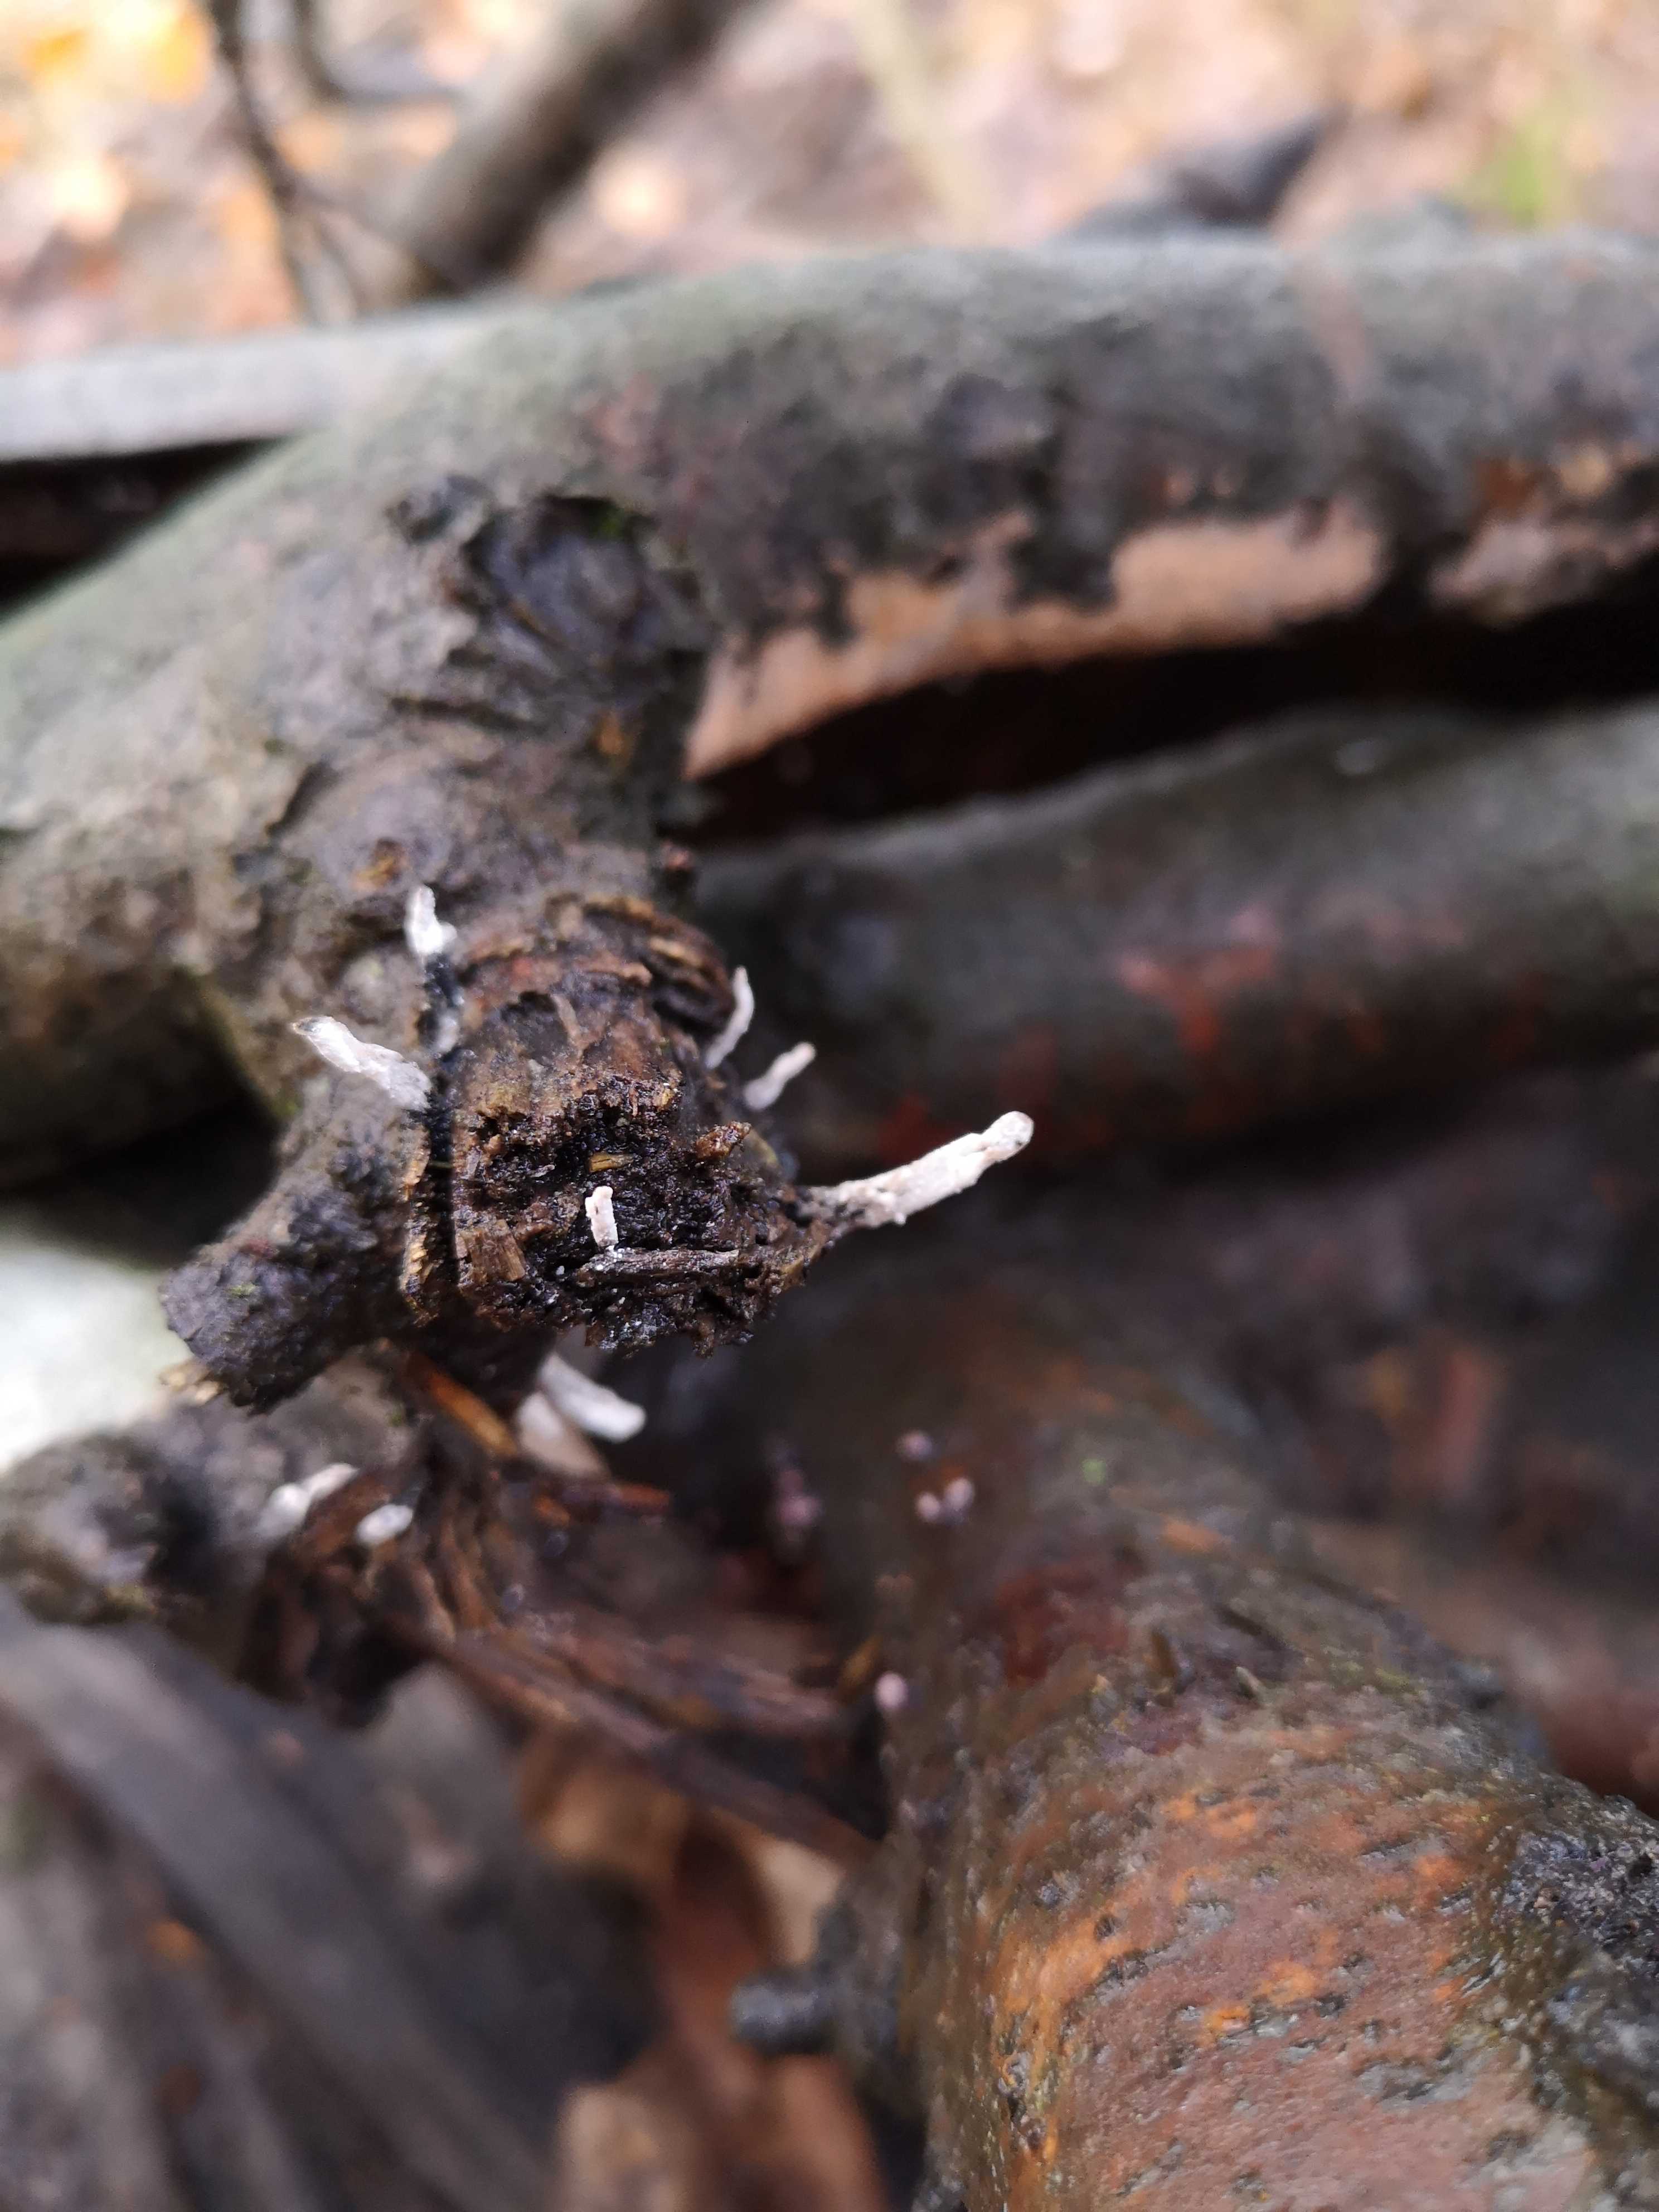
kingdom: Fungi
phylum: Ascomycota
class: Sordariomycetes
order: Xylariales
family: Xylariaceae
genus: Xylaria
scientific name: Xylaria hypoxylon
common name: grenet stødsvamp
